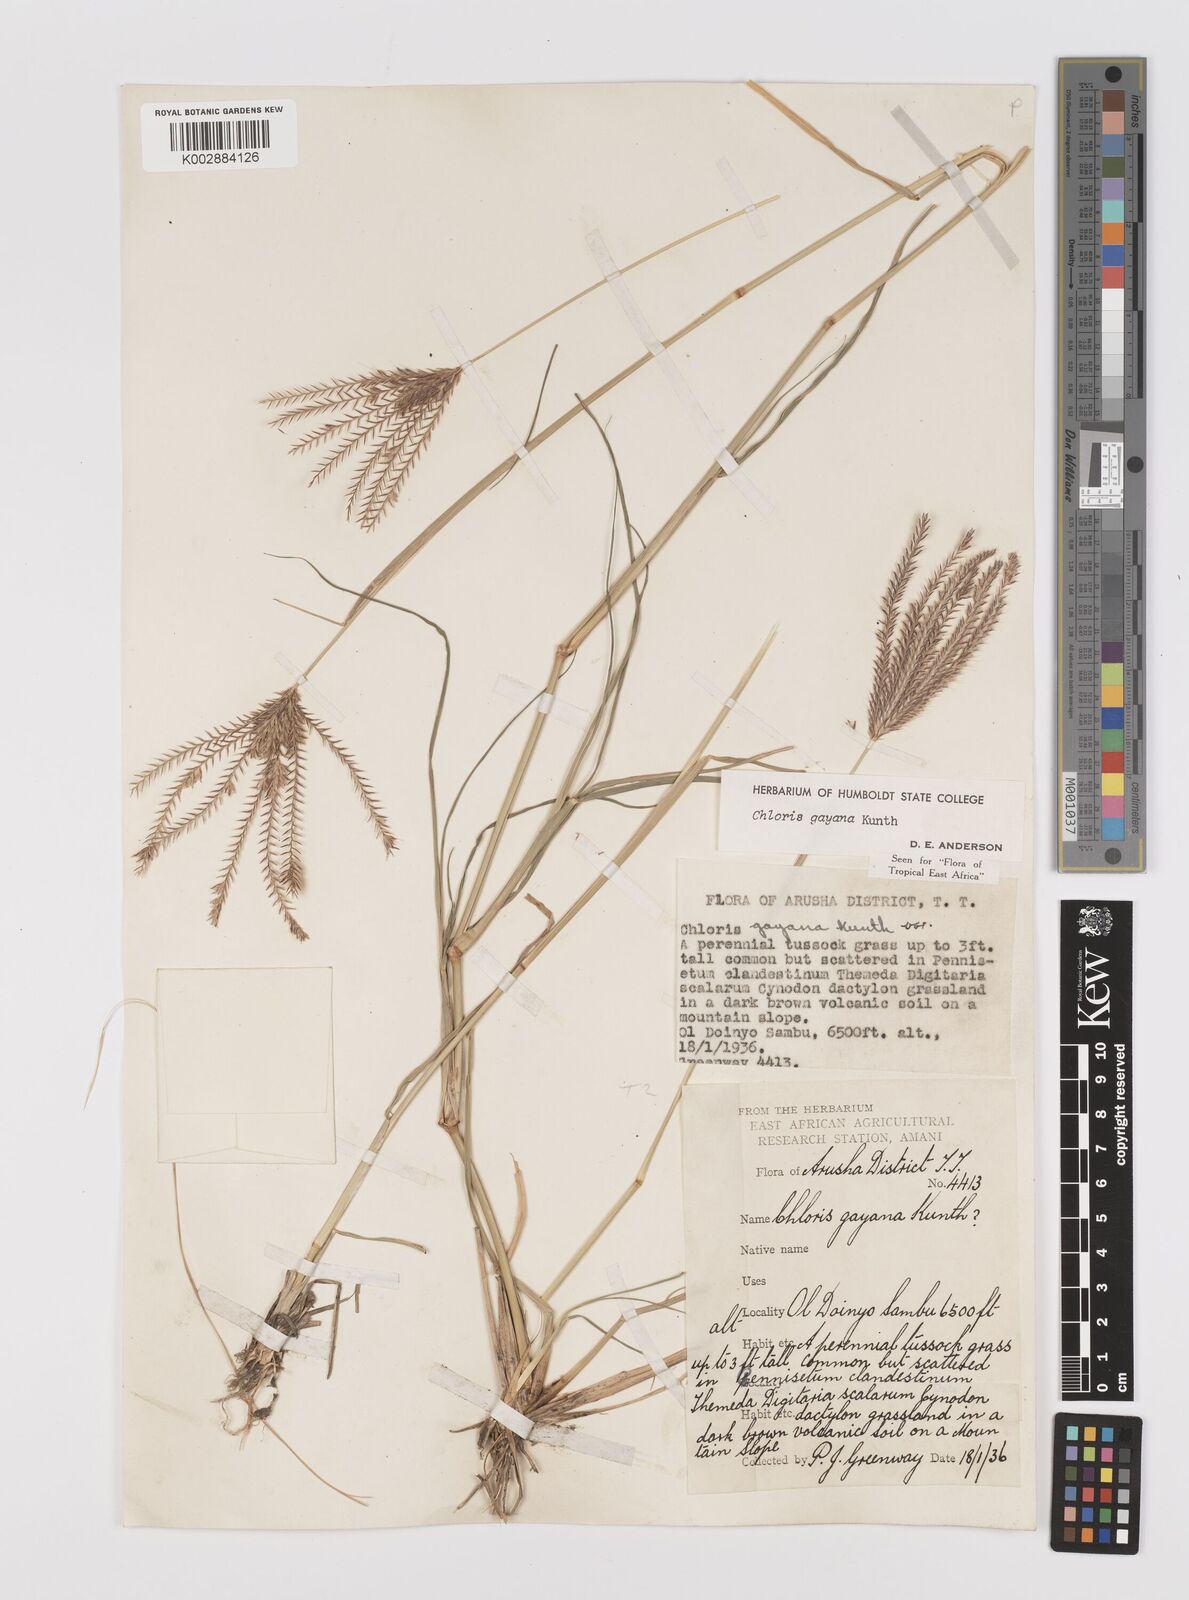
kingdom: Plantae
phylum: Tracheophyta
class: Liliopsida
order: Poales
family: Poaceae
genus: Chloris
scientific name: Chloris gayana
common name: Rhodes grass
